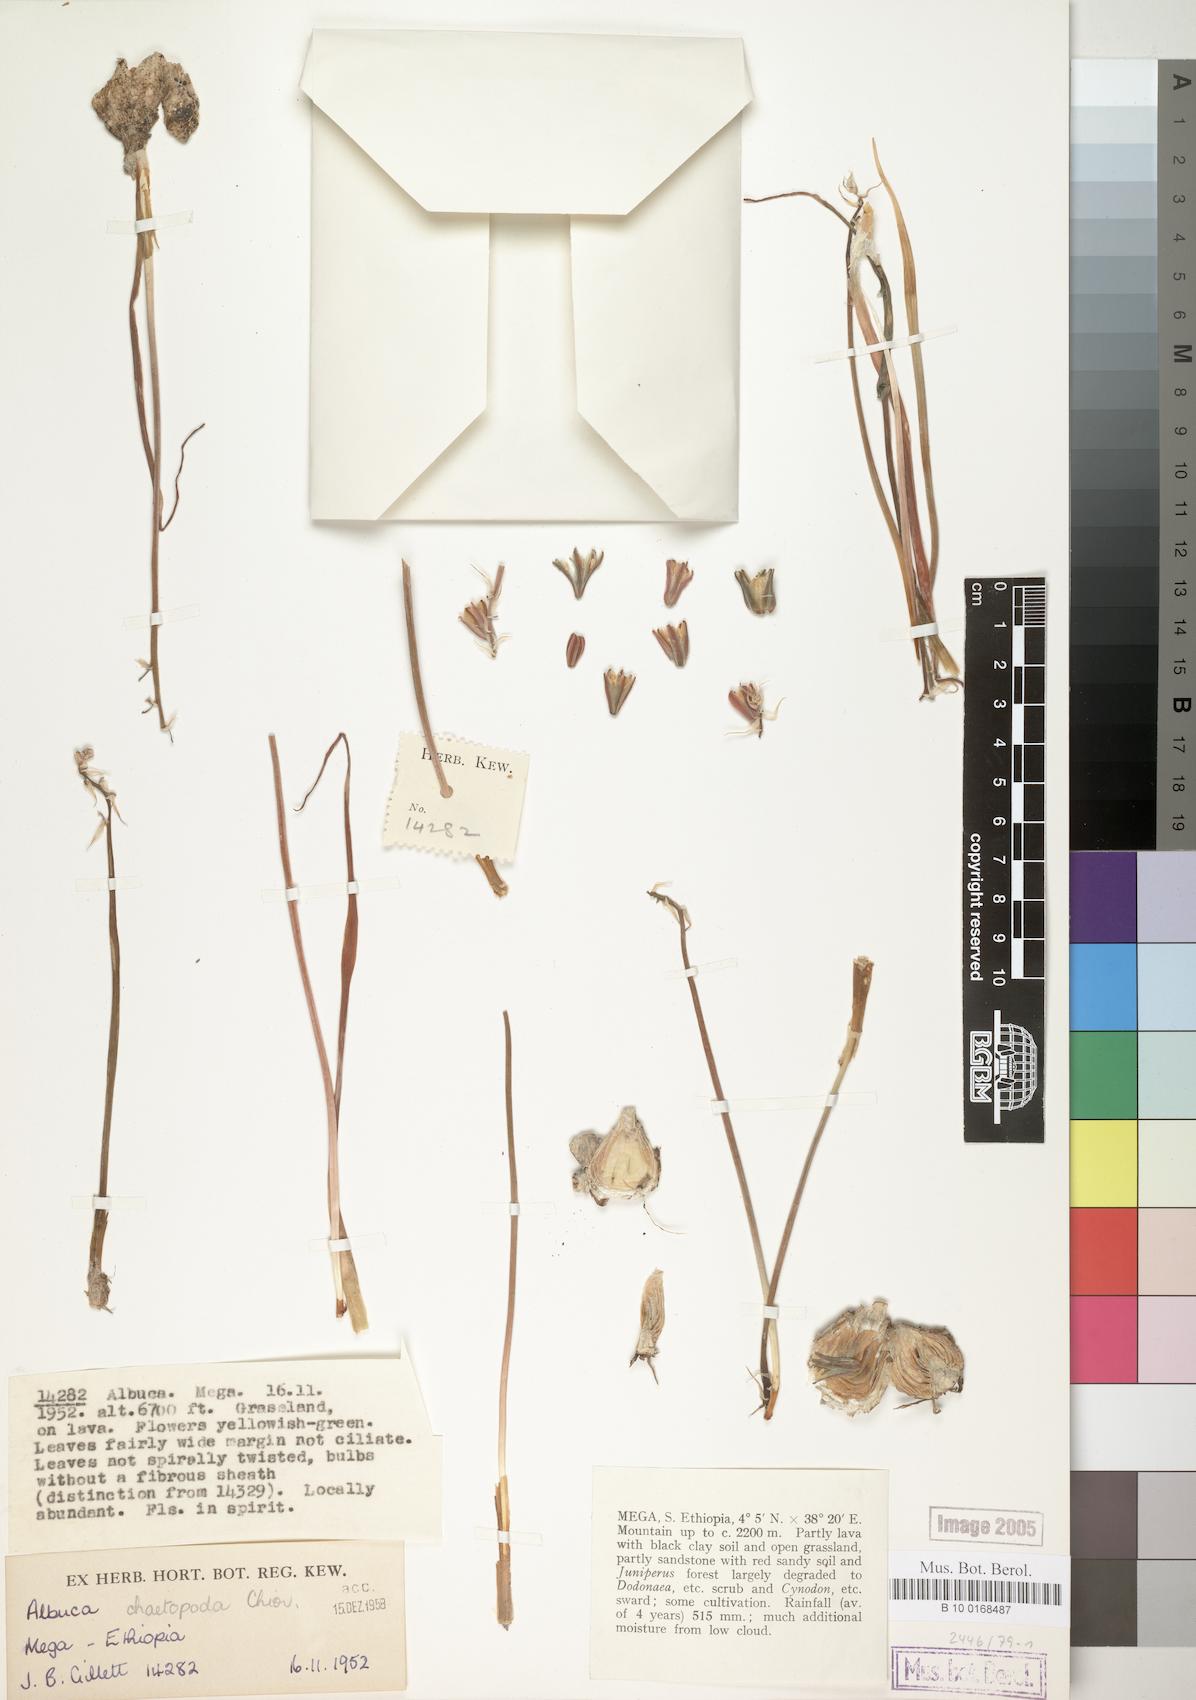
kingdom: Plantae
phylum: Tracheophyta
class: Liliopsida
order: Asparagales
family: Asparagaceae
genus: Albuca
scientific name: Albuca abyssinica
